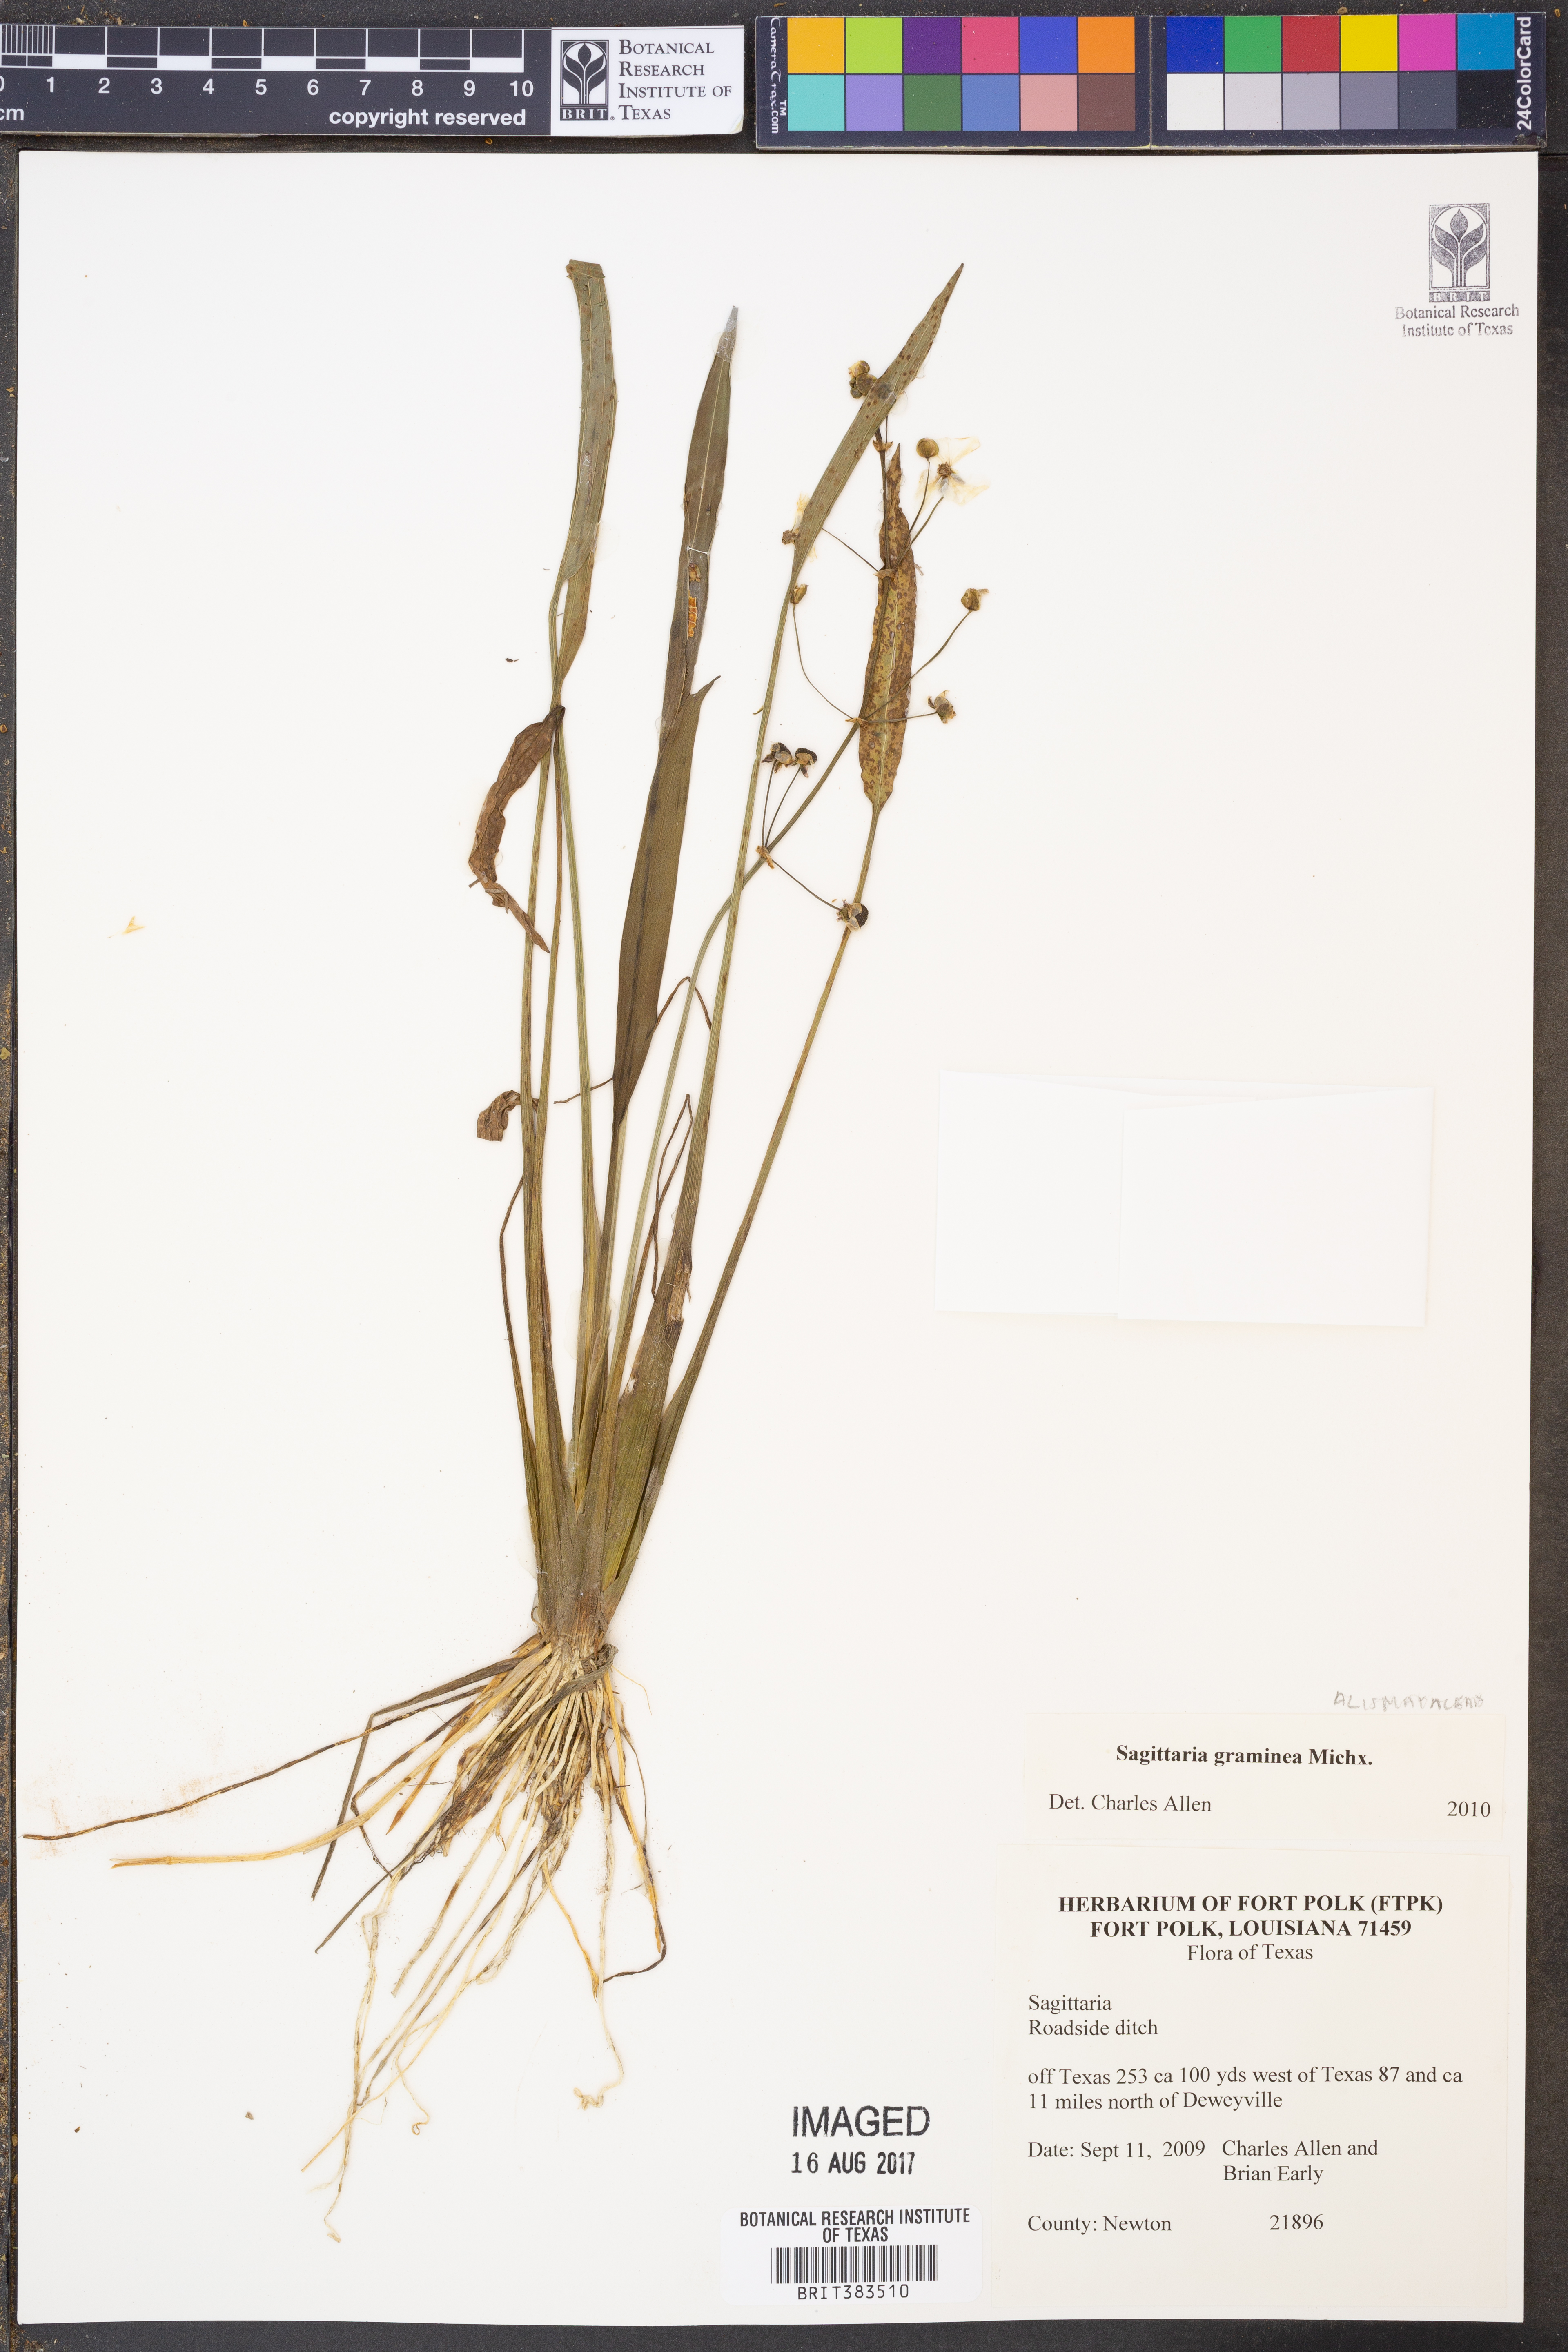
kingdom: Plantae
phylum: Tracheophyta
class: Liliopsida
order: Alismatales
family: Alismataceae
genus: Sagittaria
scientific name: Sagittaria graminea
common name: Grass-leaved arrowhead
